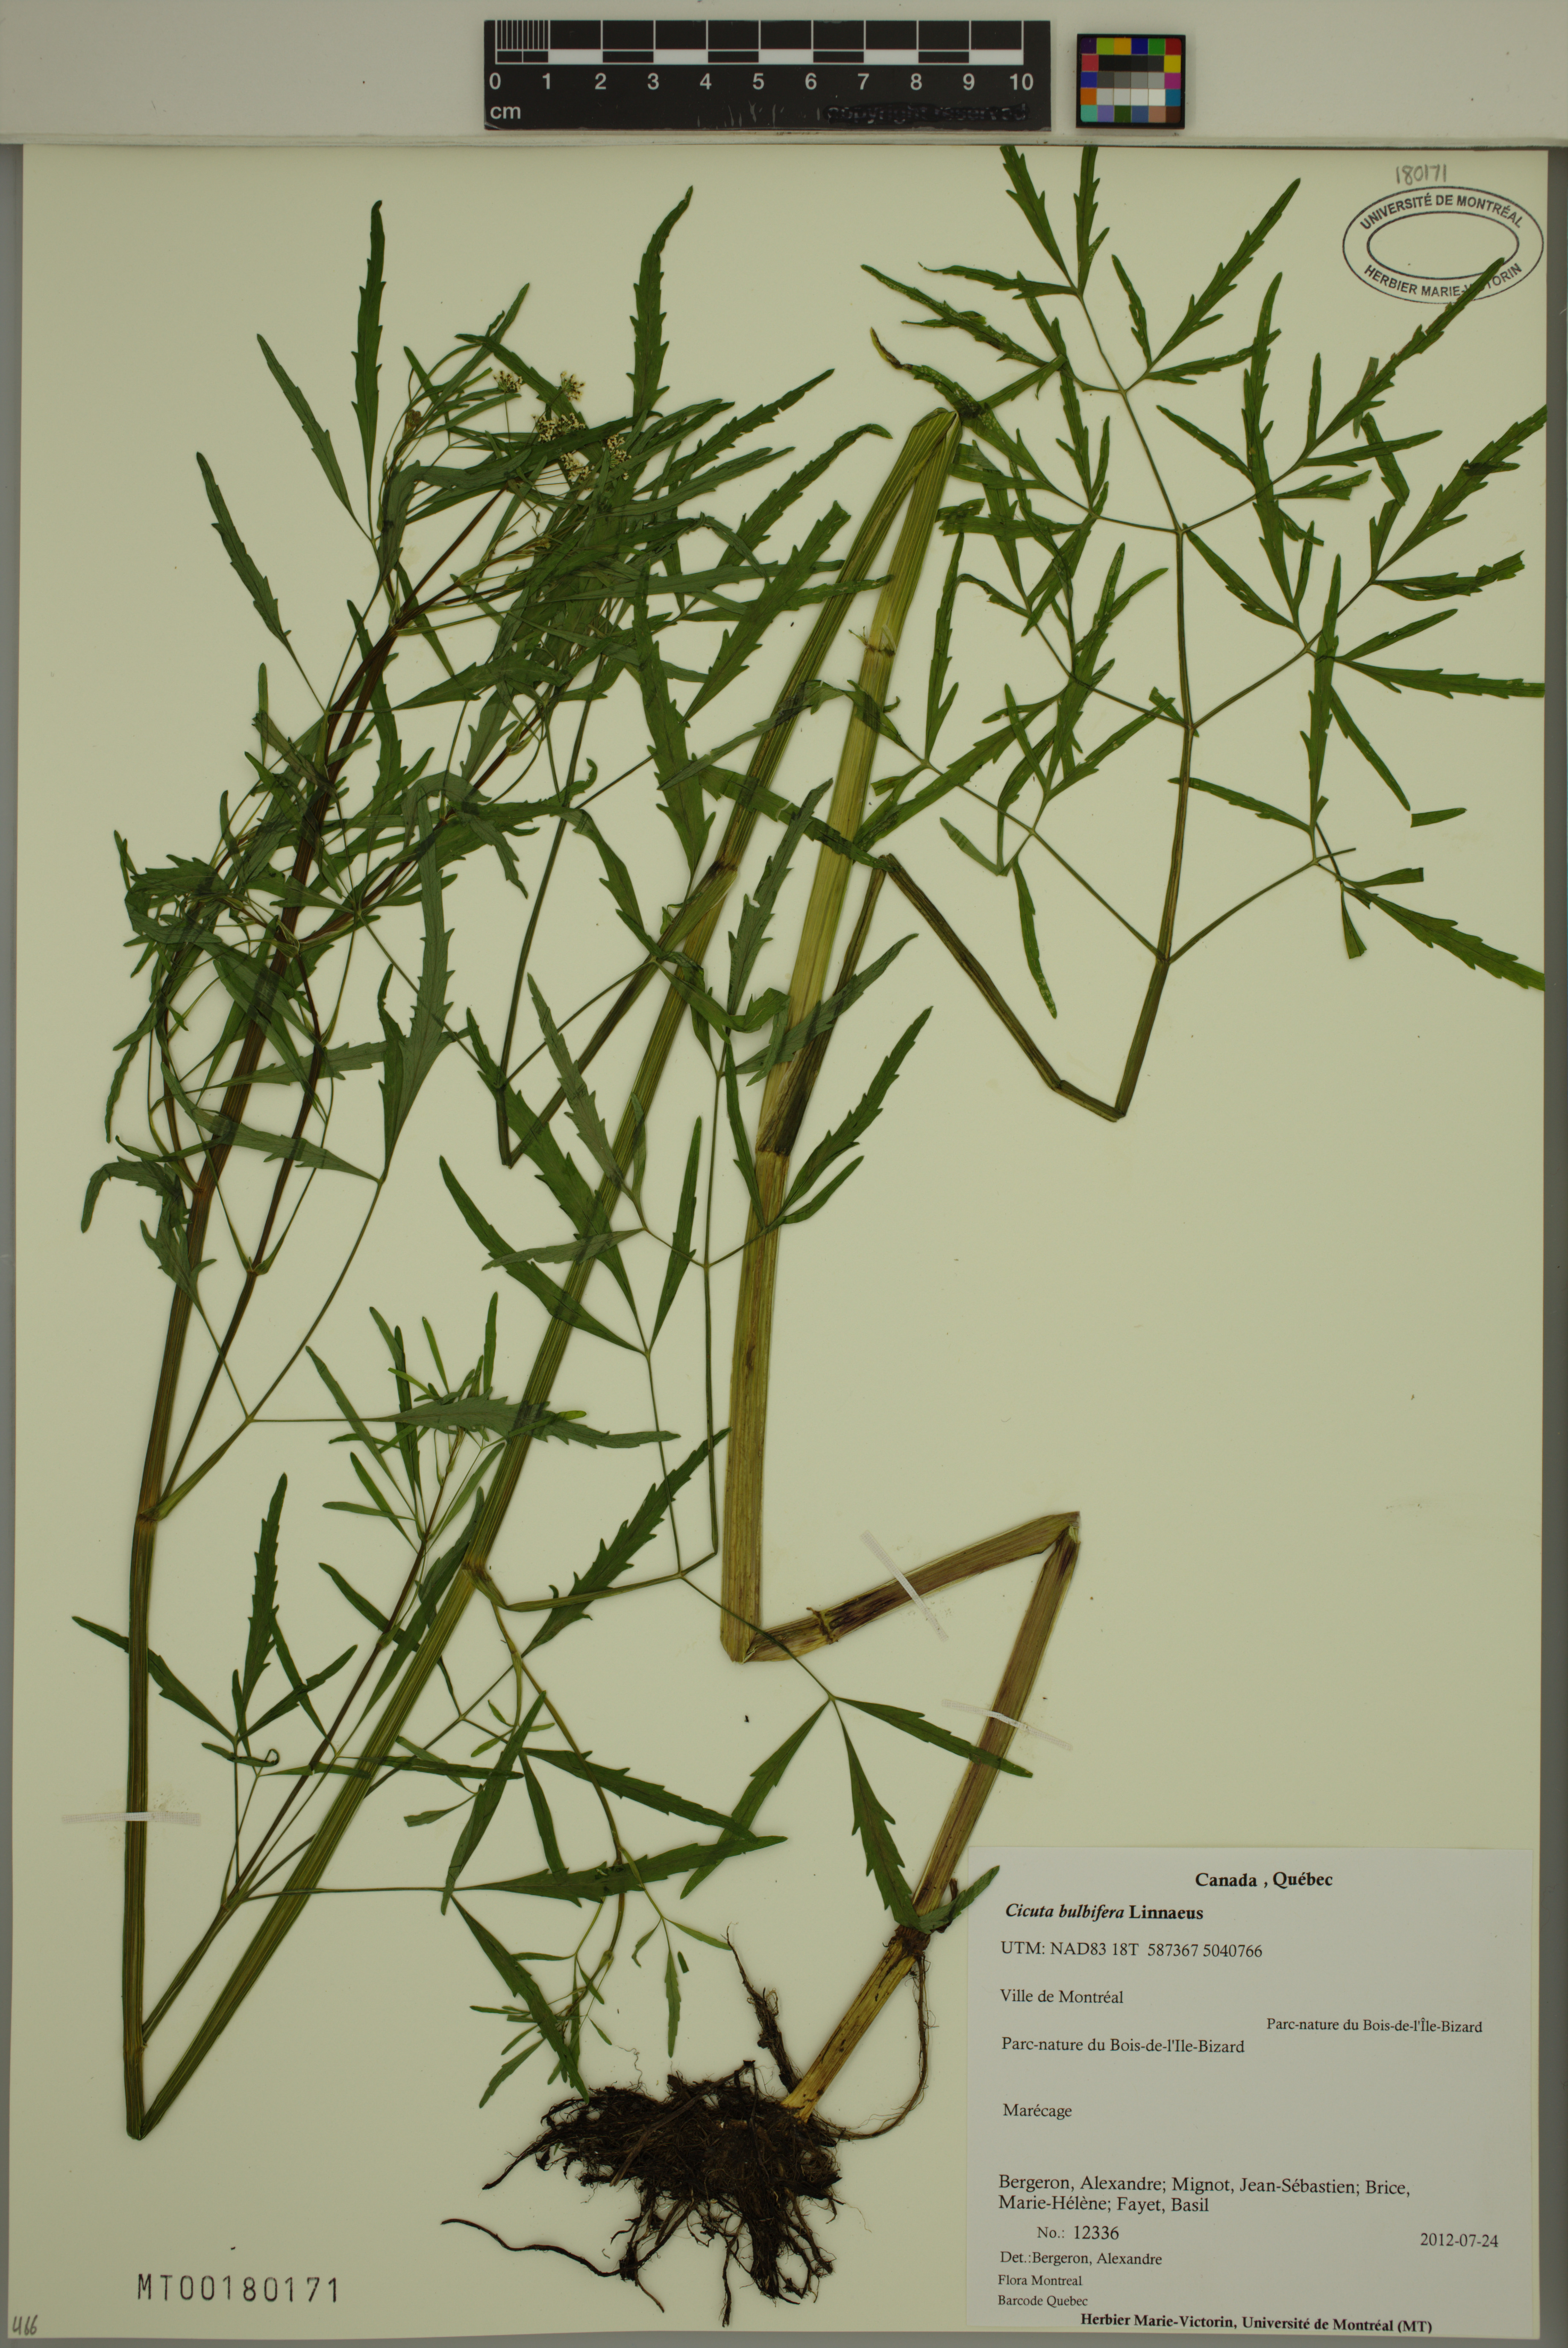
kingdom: Plantae
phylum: Tracheophyta
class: Magnoliopsida
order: Apiales
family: Apiaceae
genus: Cicuta
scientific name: Cicuta bulbifera
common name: Bulb-bearing water-hemlock
